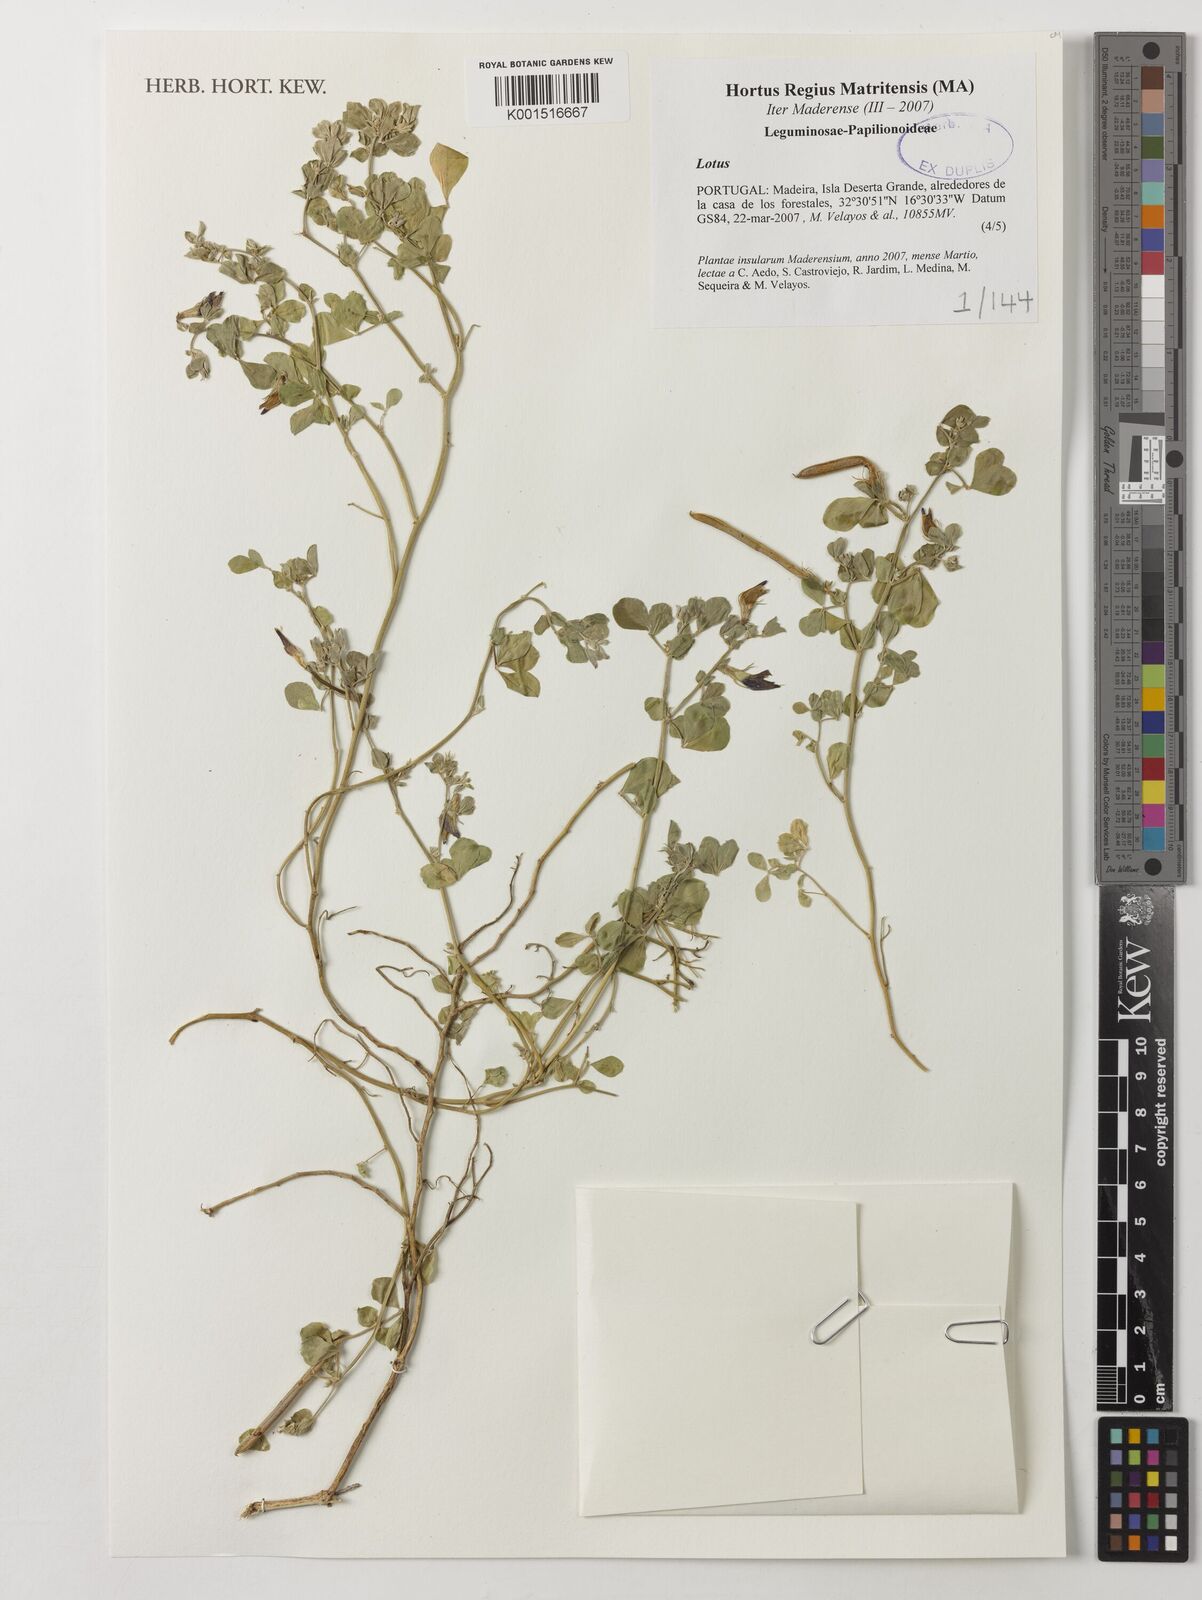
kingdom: Plantae
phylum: Tracheophyta
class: Magnoliopsida
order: Fabales
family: Fabaceae
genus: Lotus
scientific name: Lotus
